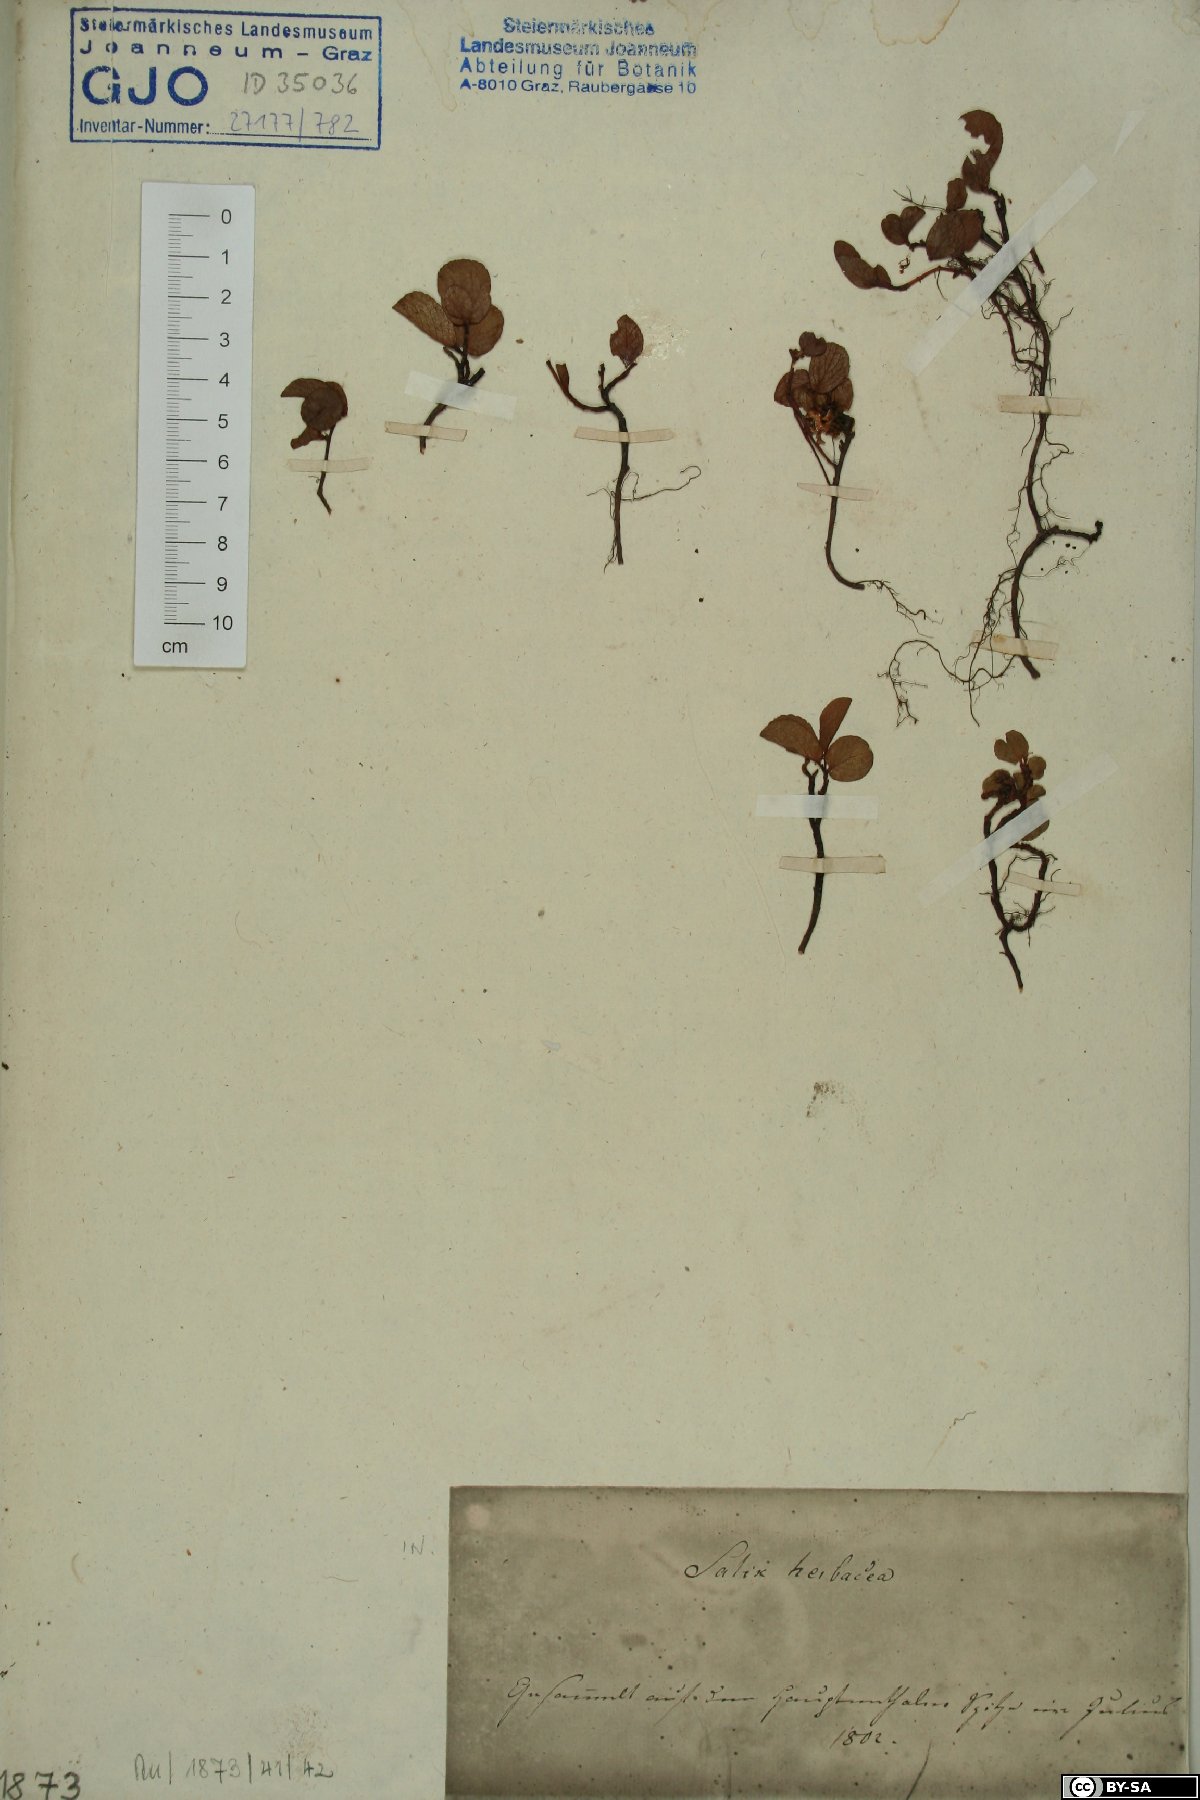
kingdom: Plantae
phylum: Tracheophyta
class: Magnoliopsida
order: Malpighiales
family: Salicaceae
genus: Salix
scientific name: Salix herbacea
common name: Dwarf willow
